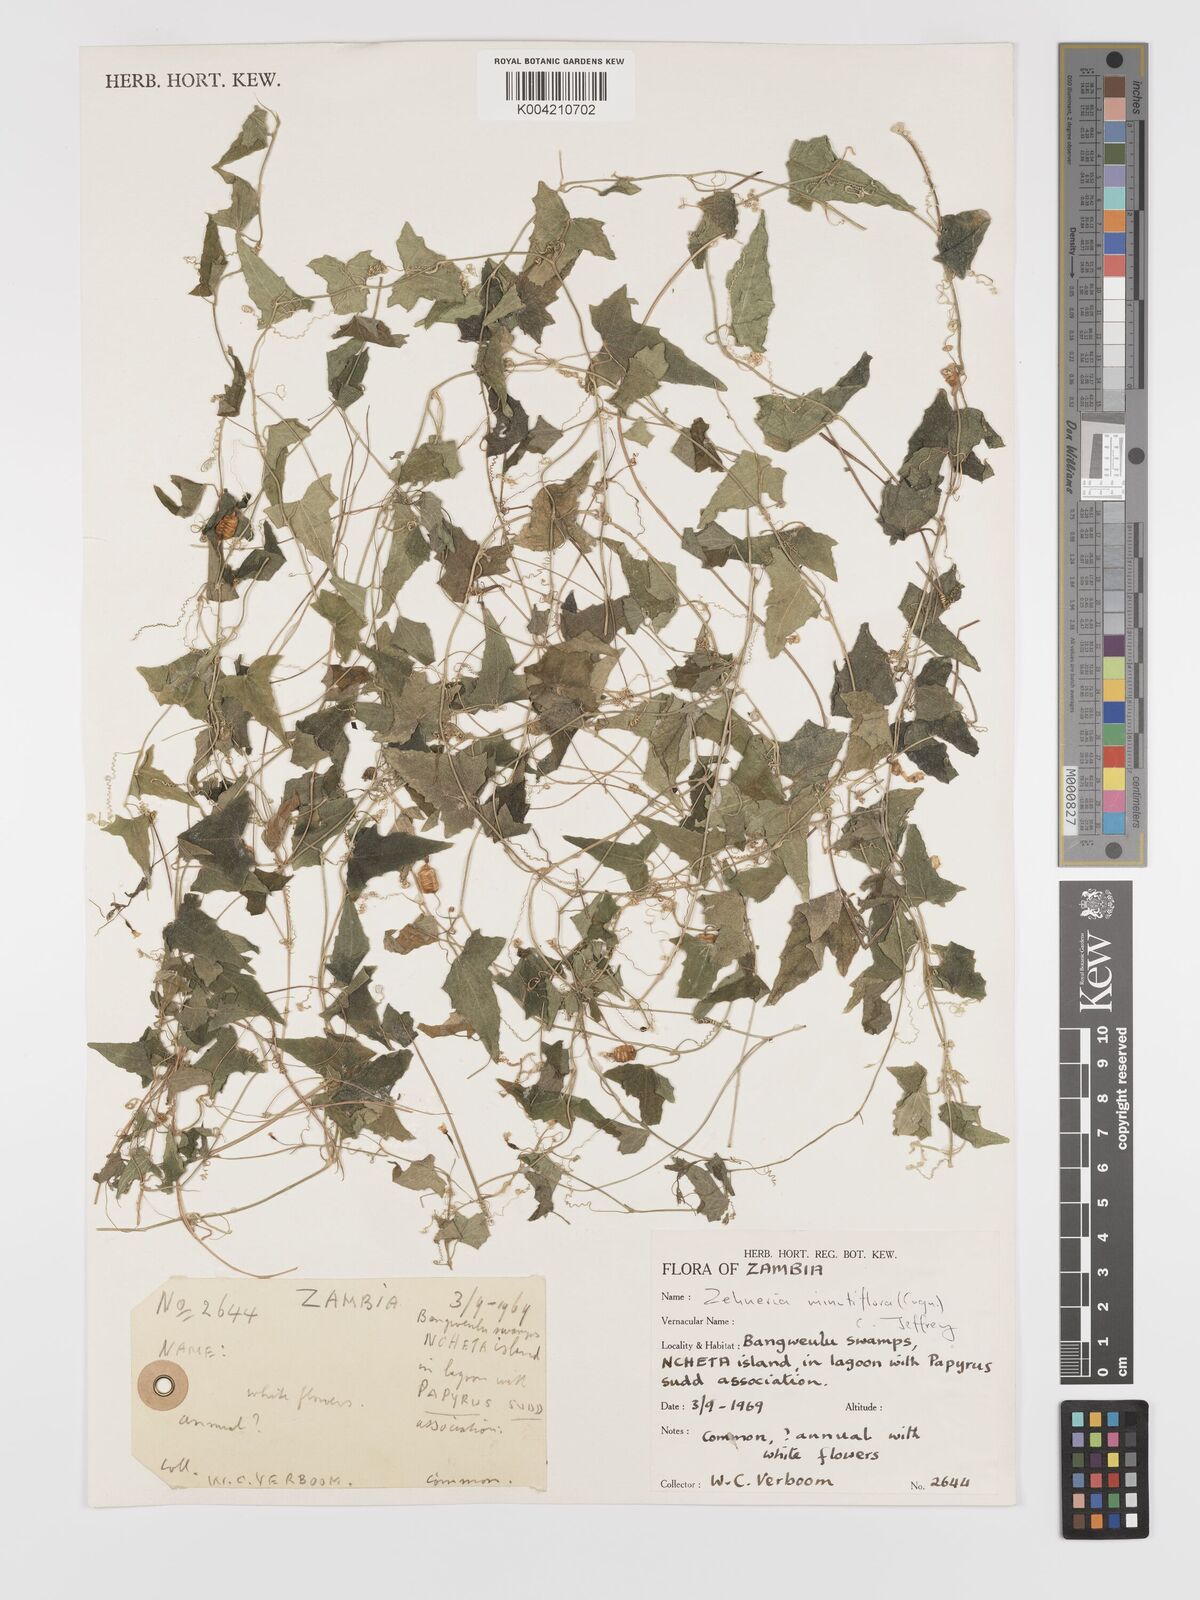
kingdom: Plantae
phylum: Tracheophyta
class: Magnoliopsida
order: Cucurbitales
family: Cucurbitaceae
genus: Zehneria
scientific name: Zehneria minutiflora
